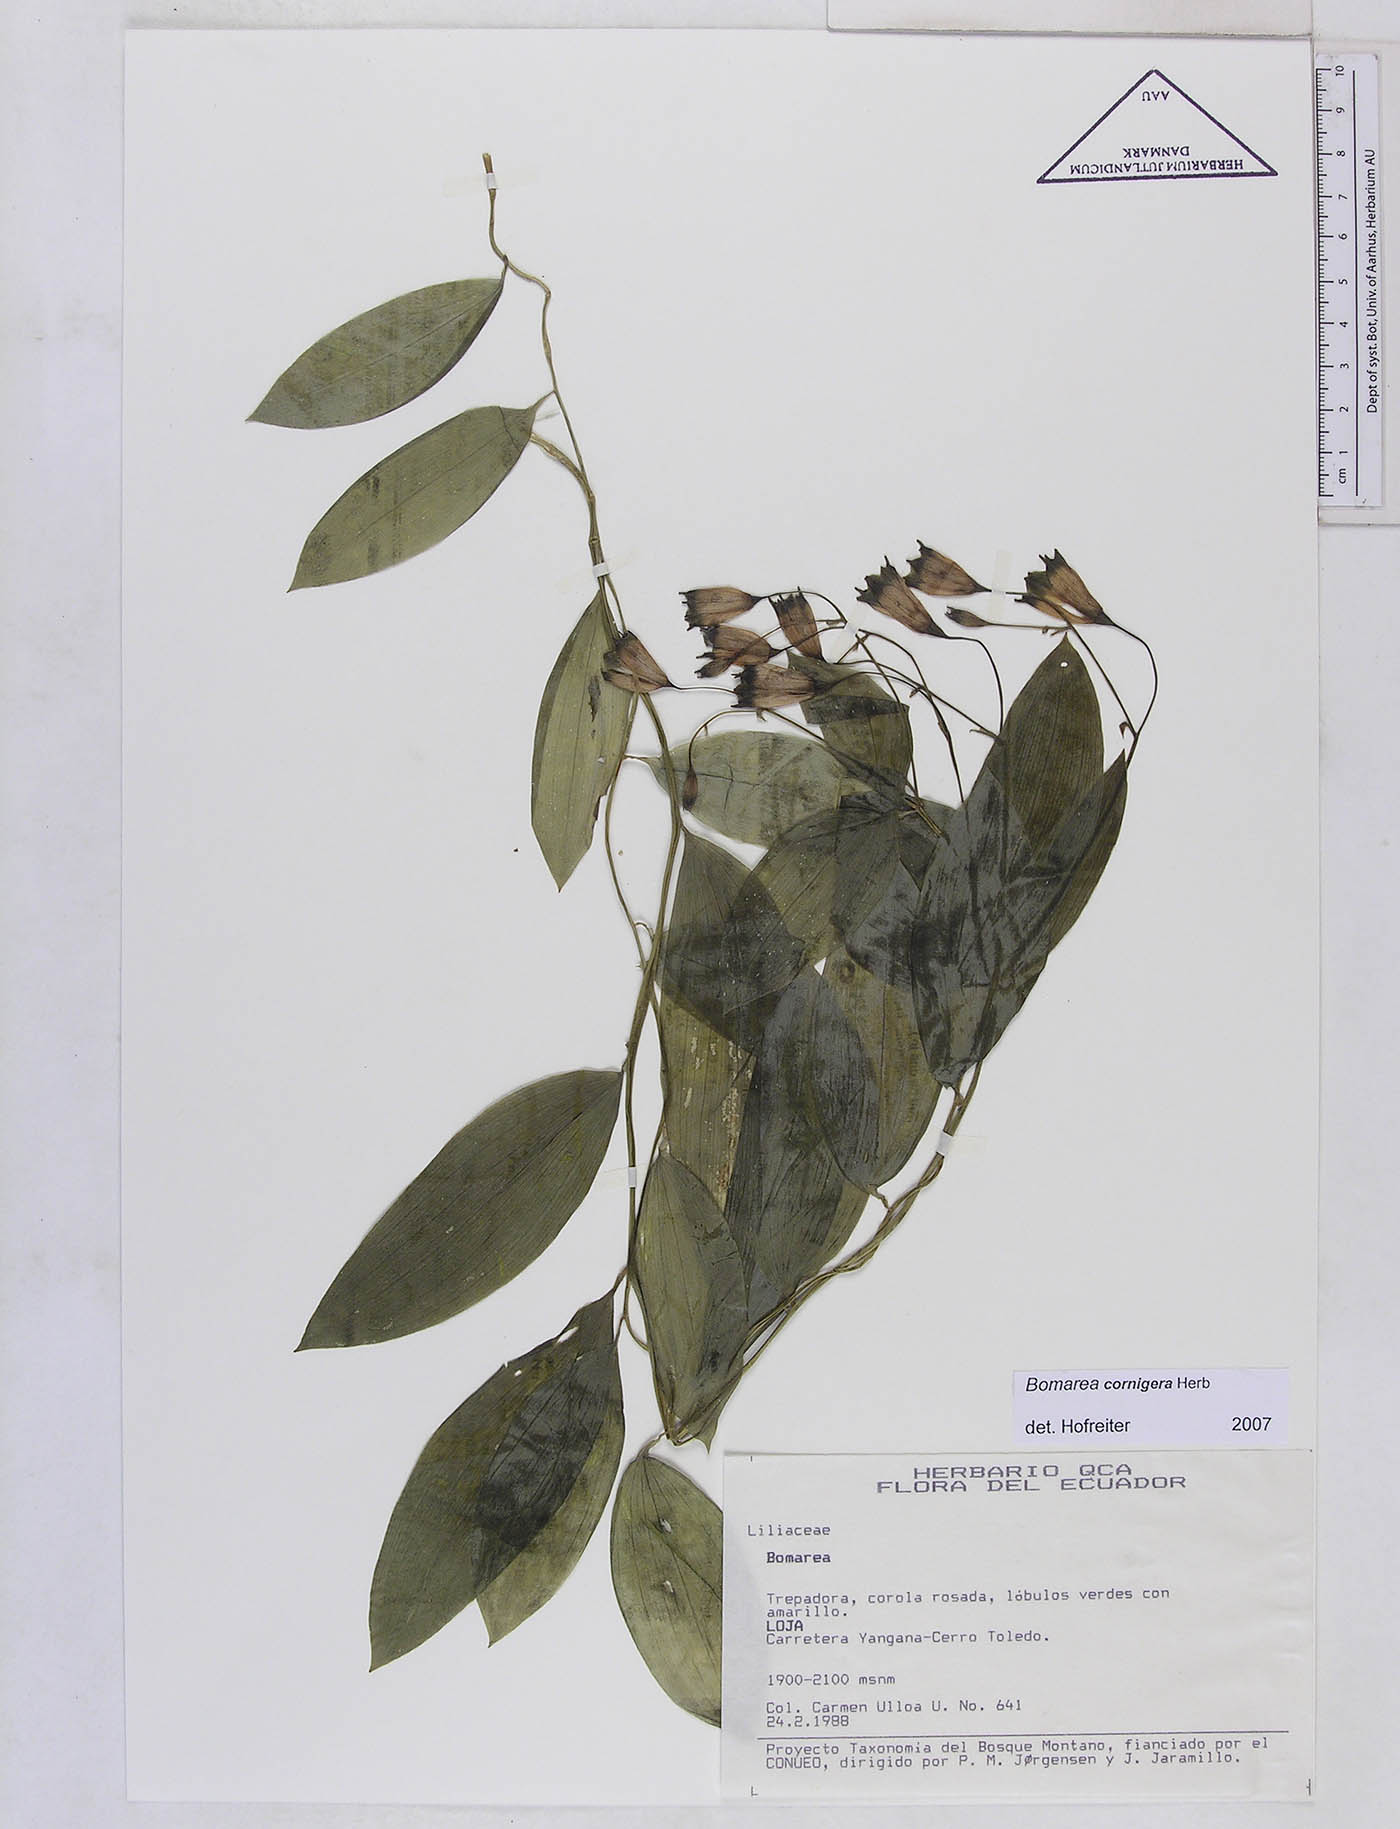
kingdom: Plantae
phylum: Tracheophyta
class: Liliopsida
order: Liliales
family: Alstroemeriaceae
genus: Bomarea
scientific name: Bomarea cornigera
